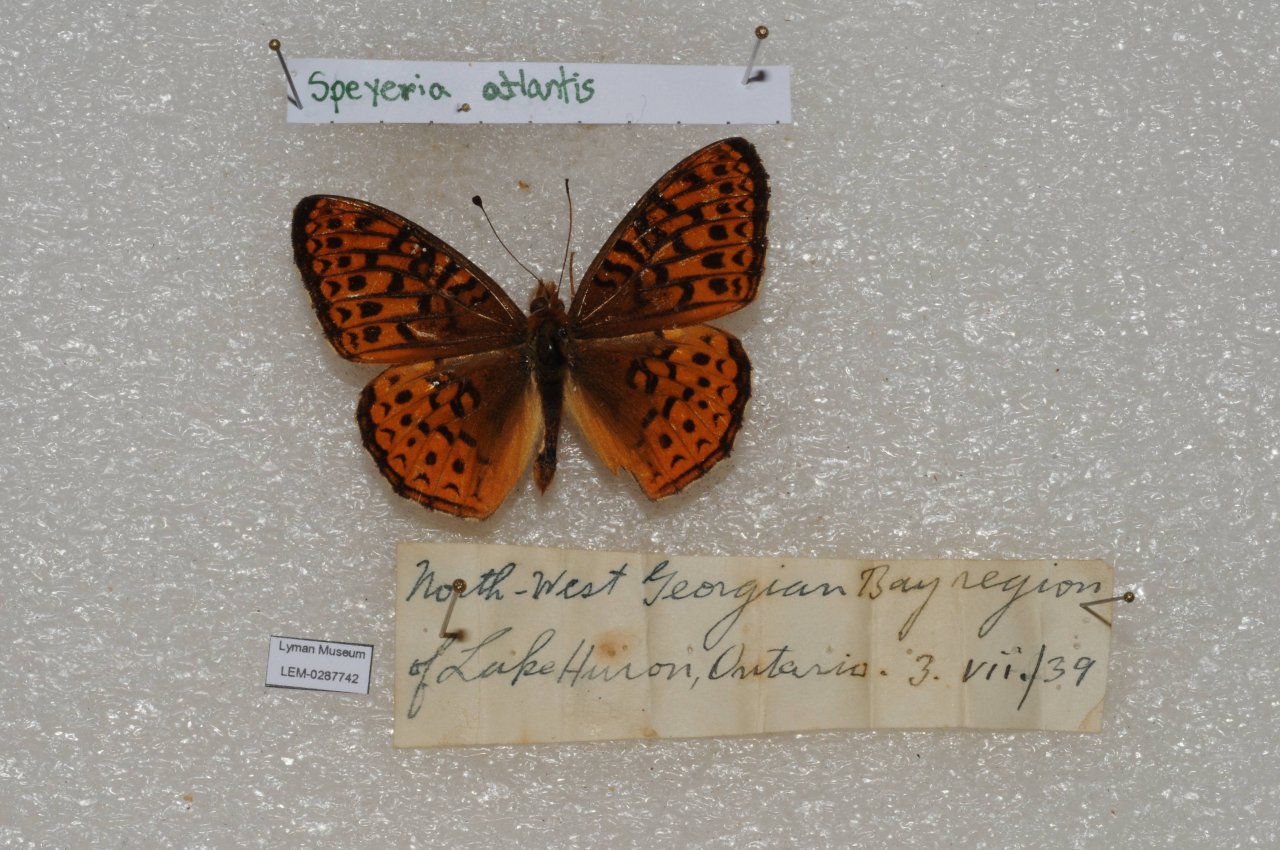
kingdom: Animalia
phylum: Arthropoda
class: Insecta
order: Lepidoptera
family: Nymphalidae
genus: Speyeria
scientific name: Speyeria atlantis
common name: Atlantis Fritillary
